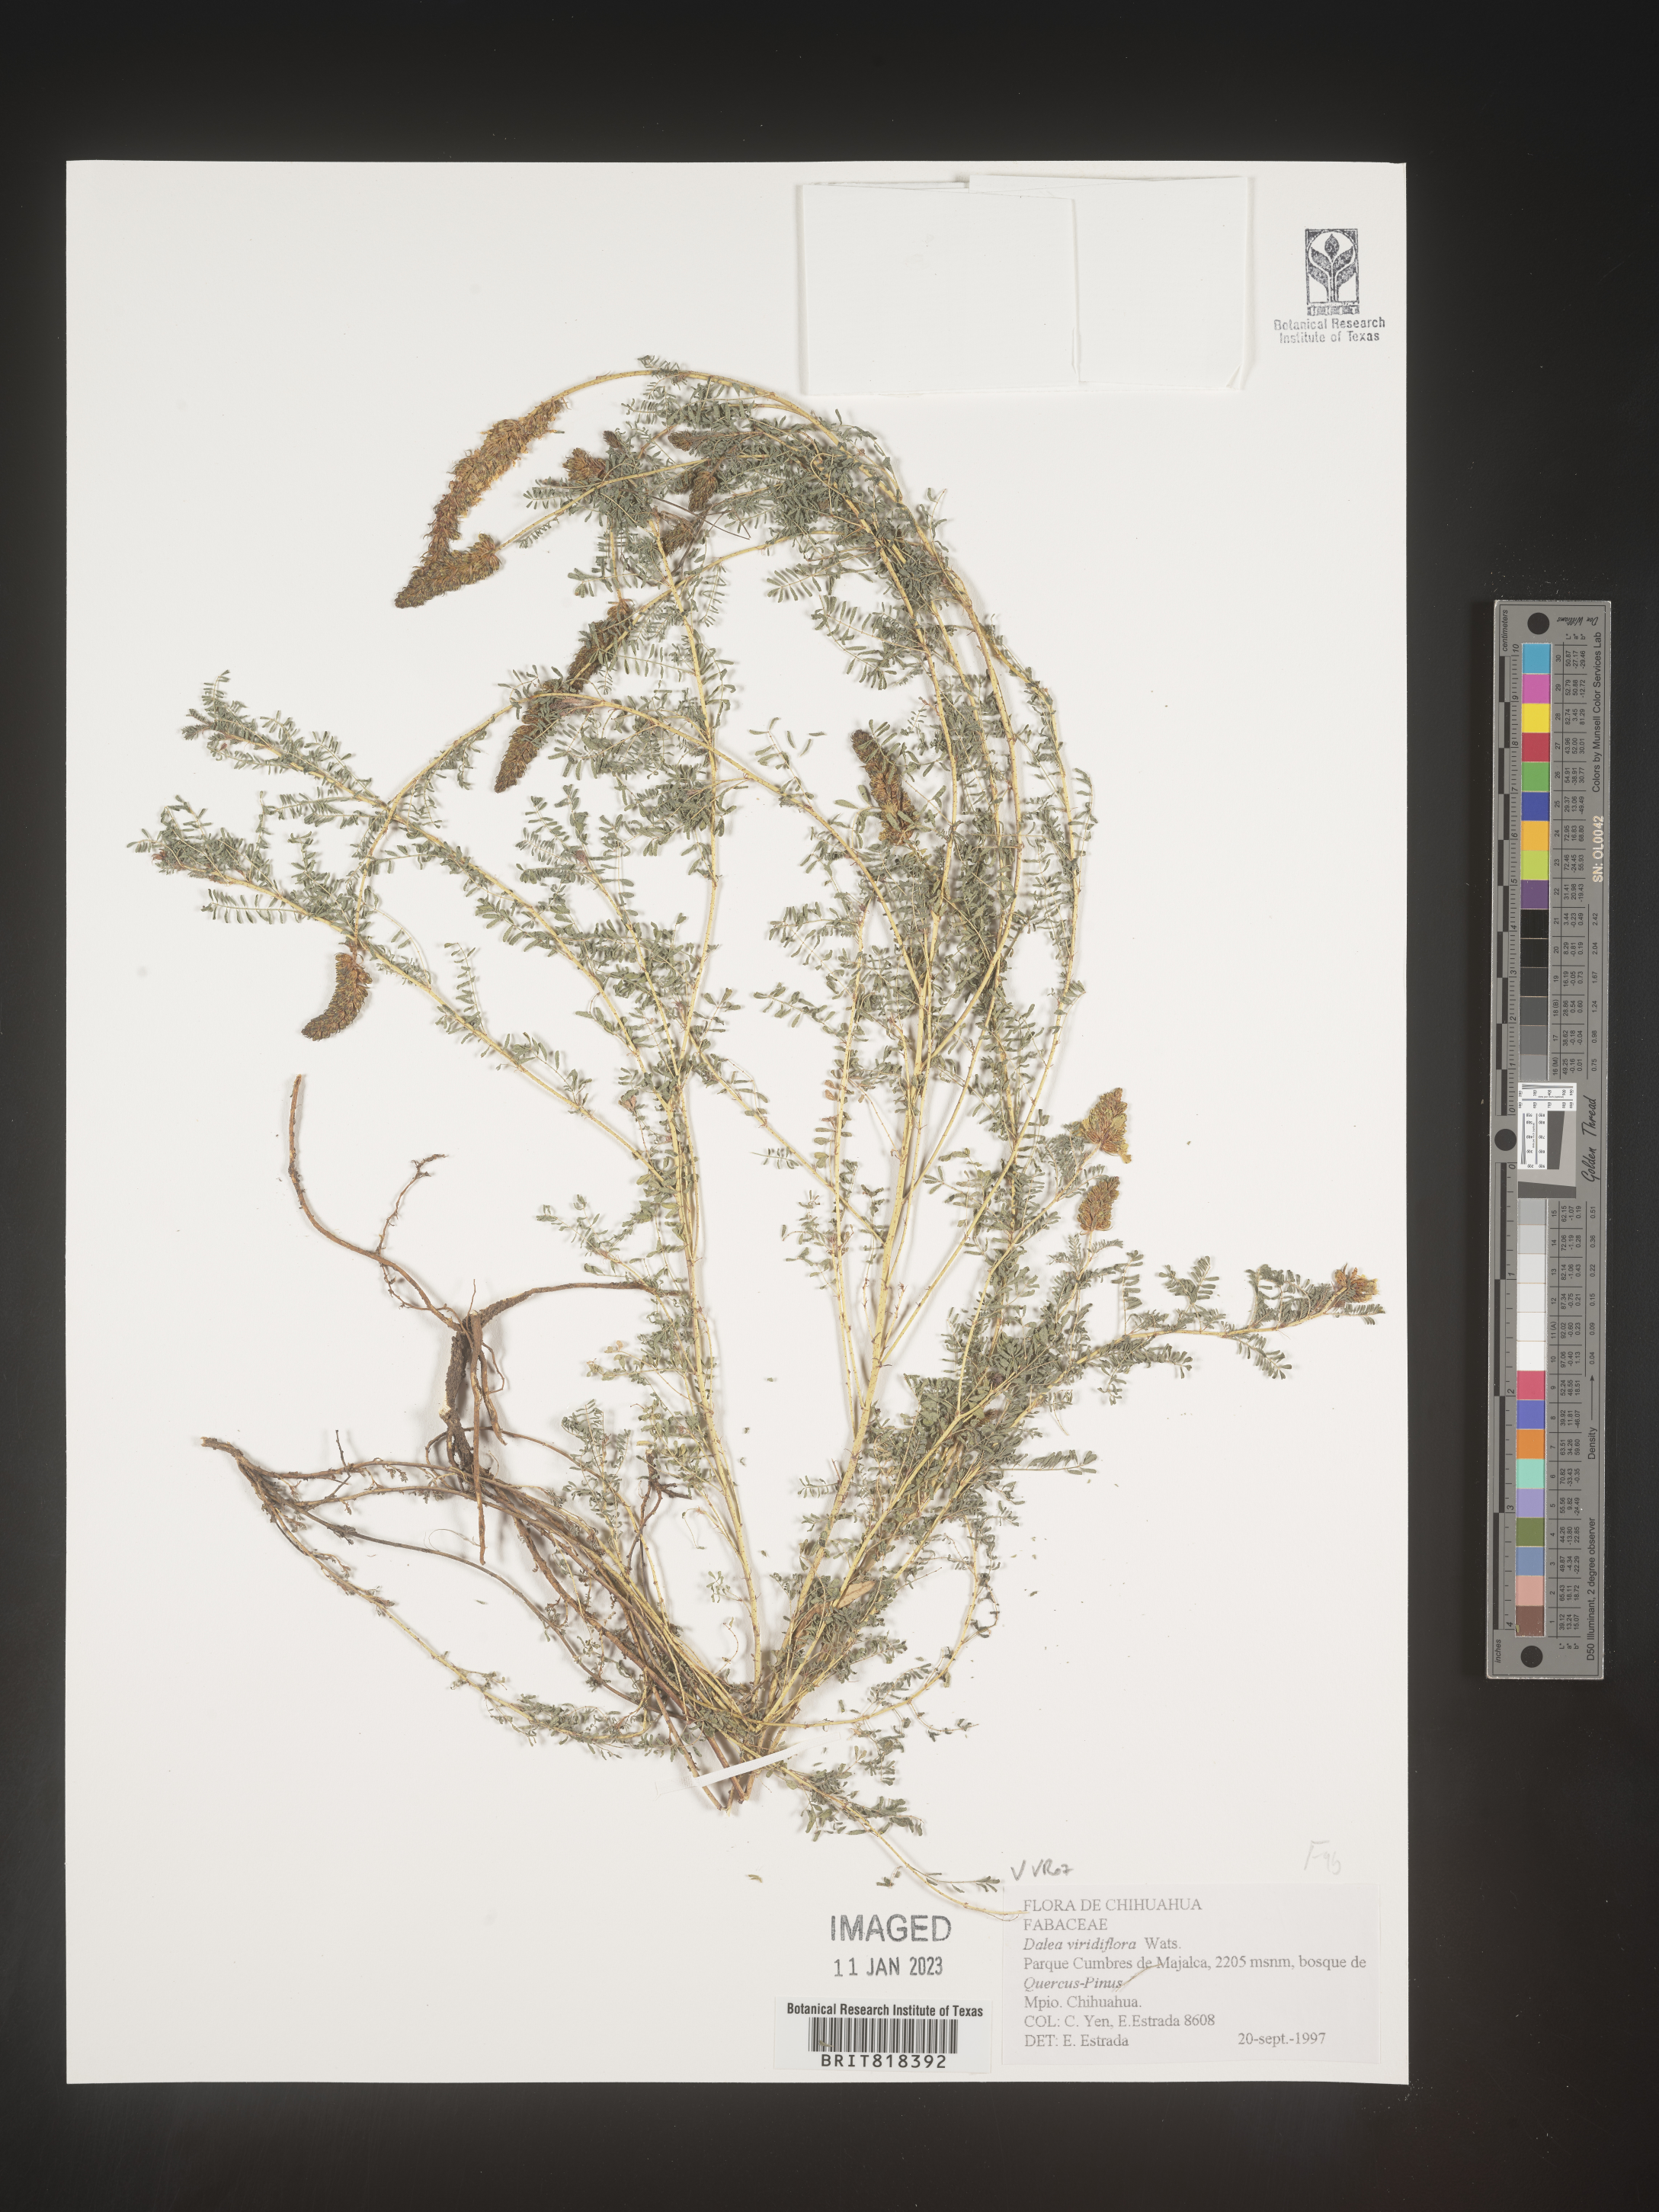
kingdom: Plantae
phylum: Tracheophyta
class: Magnoliopsida
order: Fabales
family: Fabaceae
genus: Dalea
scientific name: Dalea
